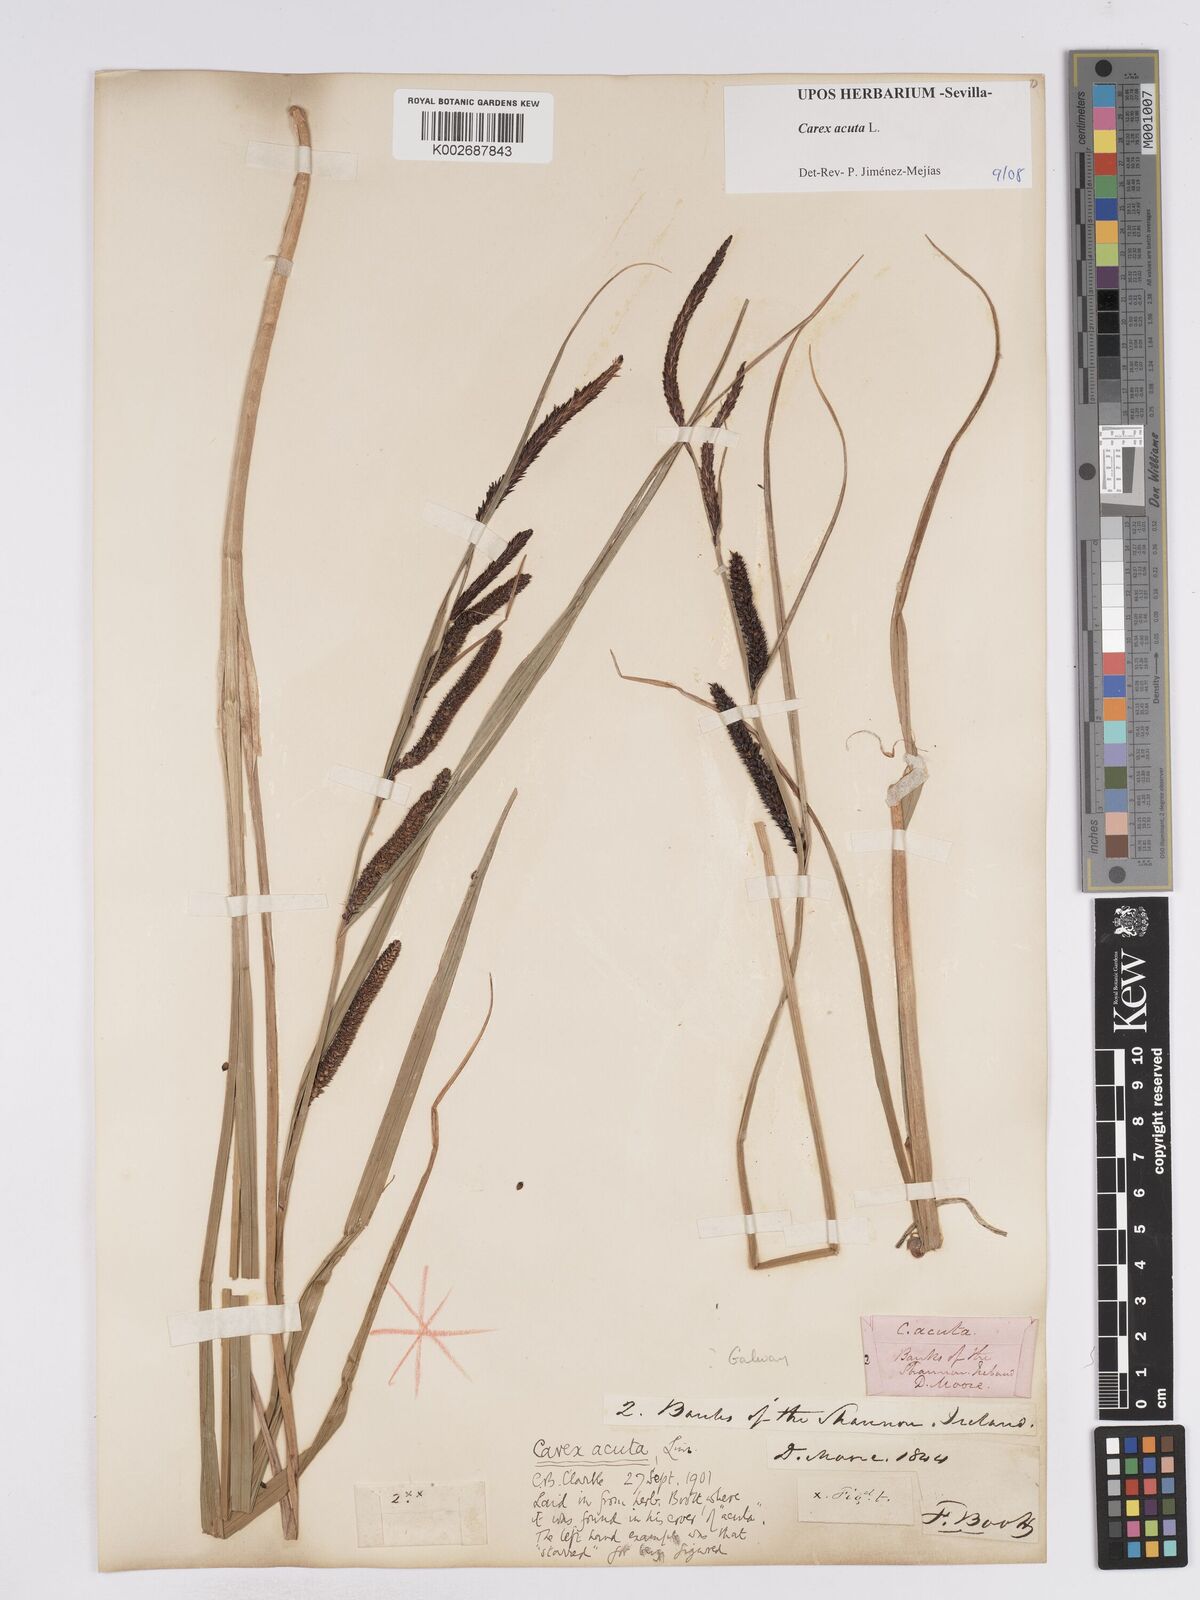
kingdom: Plantae
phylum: Tracheophyta
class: Liliopsida
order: Poales
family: Cyperaceae
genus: Carex
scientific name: Carex acuta
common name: Slender tufted-sedge
